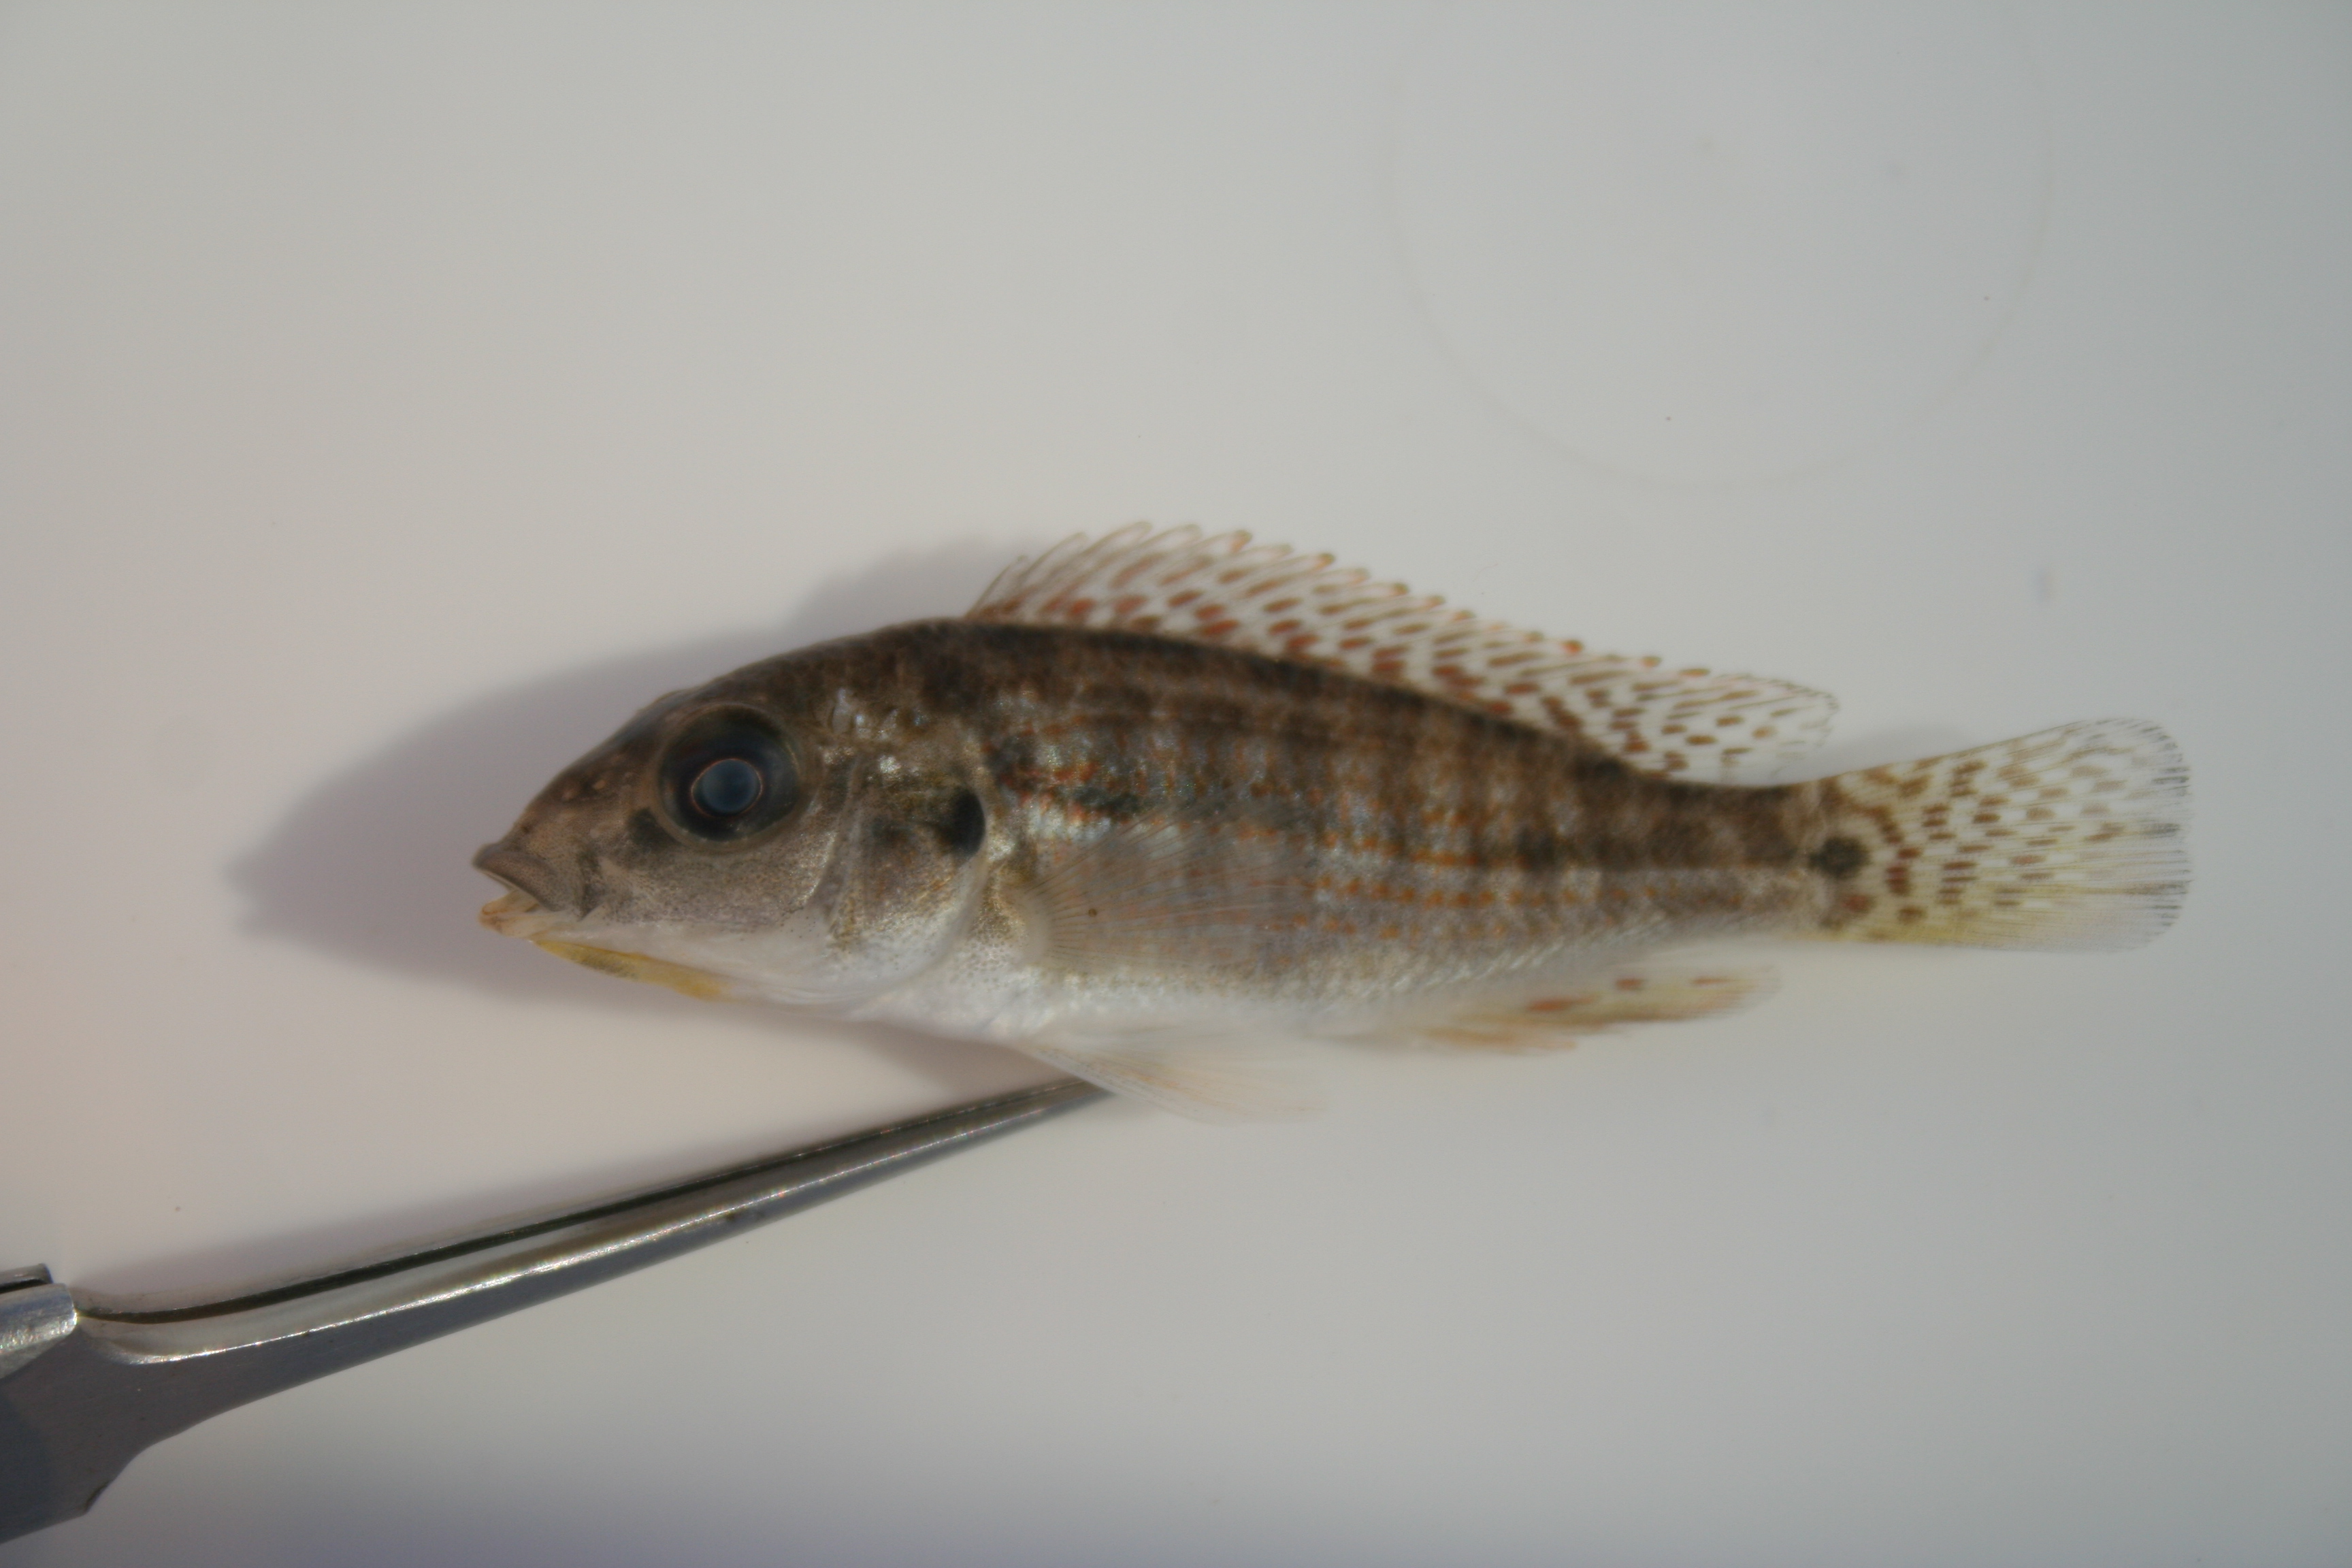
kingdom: Animalia
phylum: Chordata
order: Perciformes
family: Cichlidae
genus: Pharyngochromis
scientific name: Pharyngochromis
